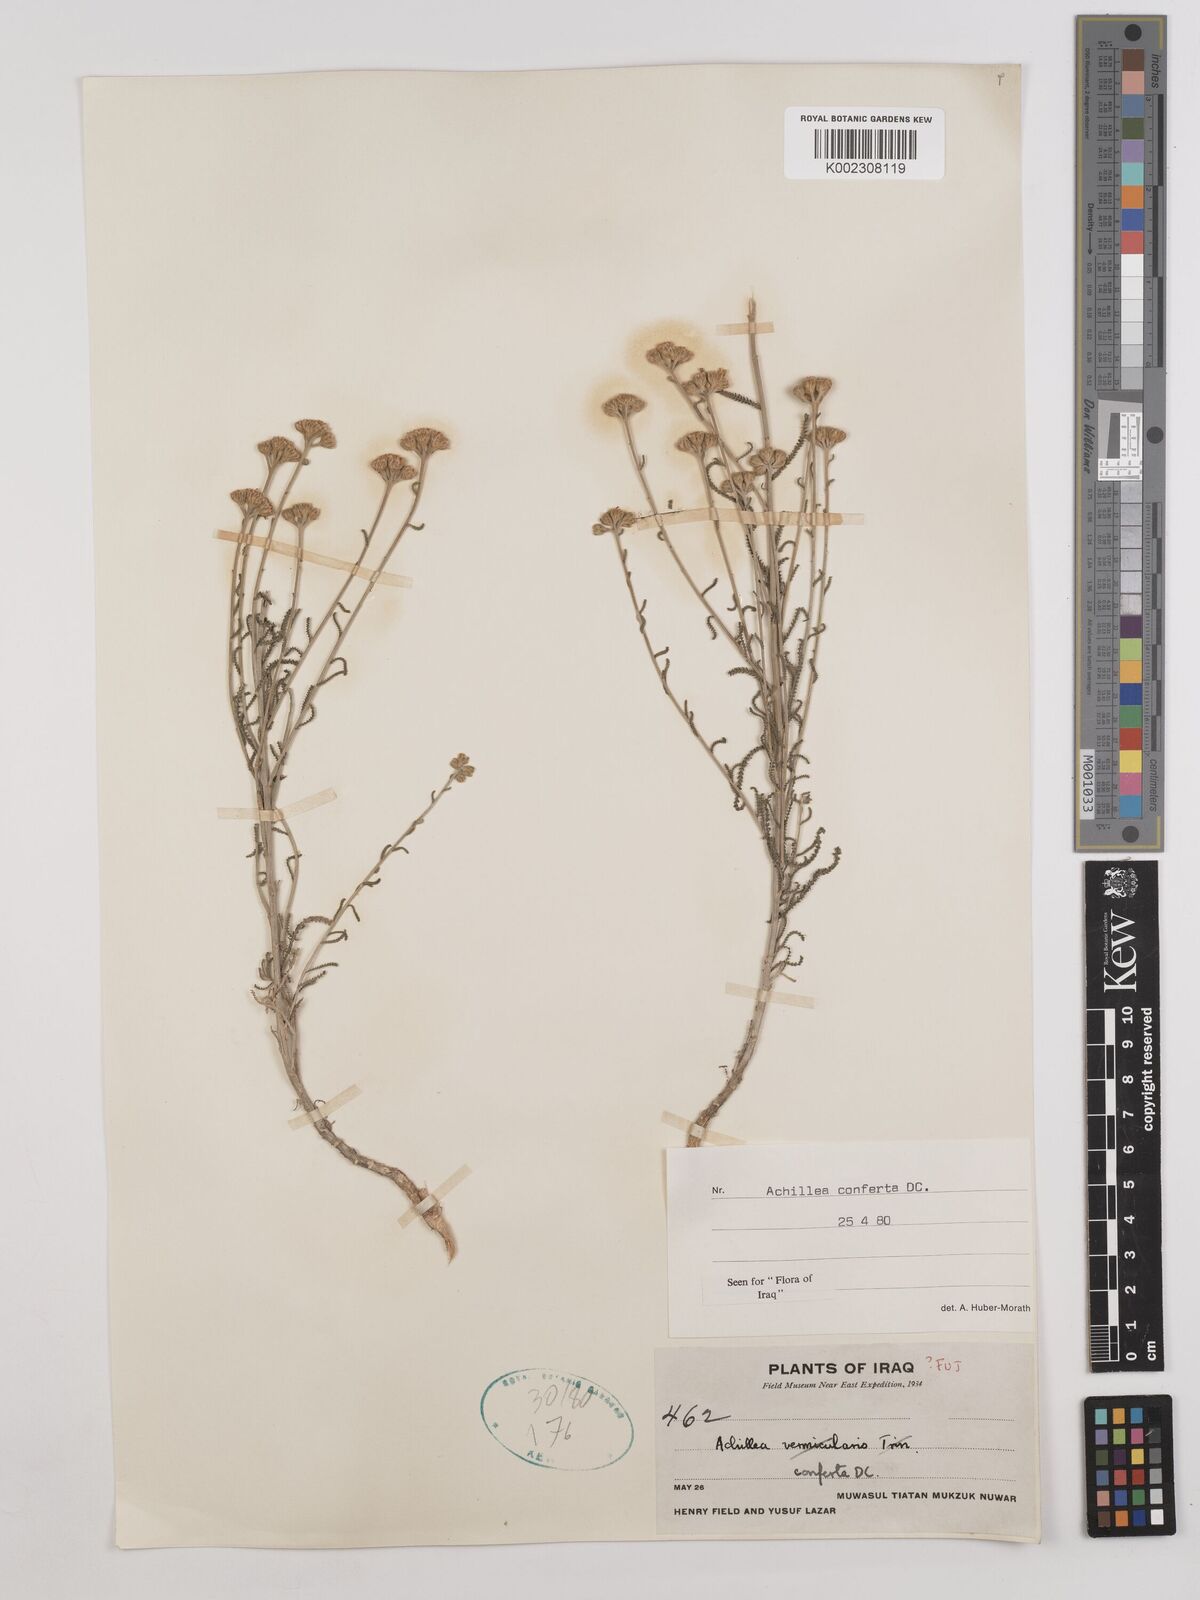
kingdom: Plantae
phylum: Tracheophyta
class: Magnoliopsida
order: Asterales
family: Asteraceae
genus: Achillea
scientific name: Achillea conferta
